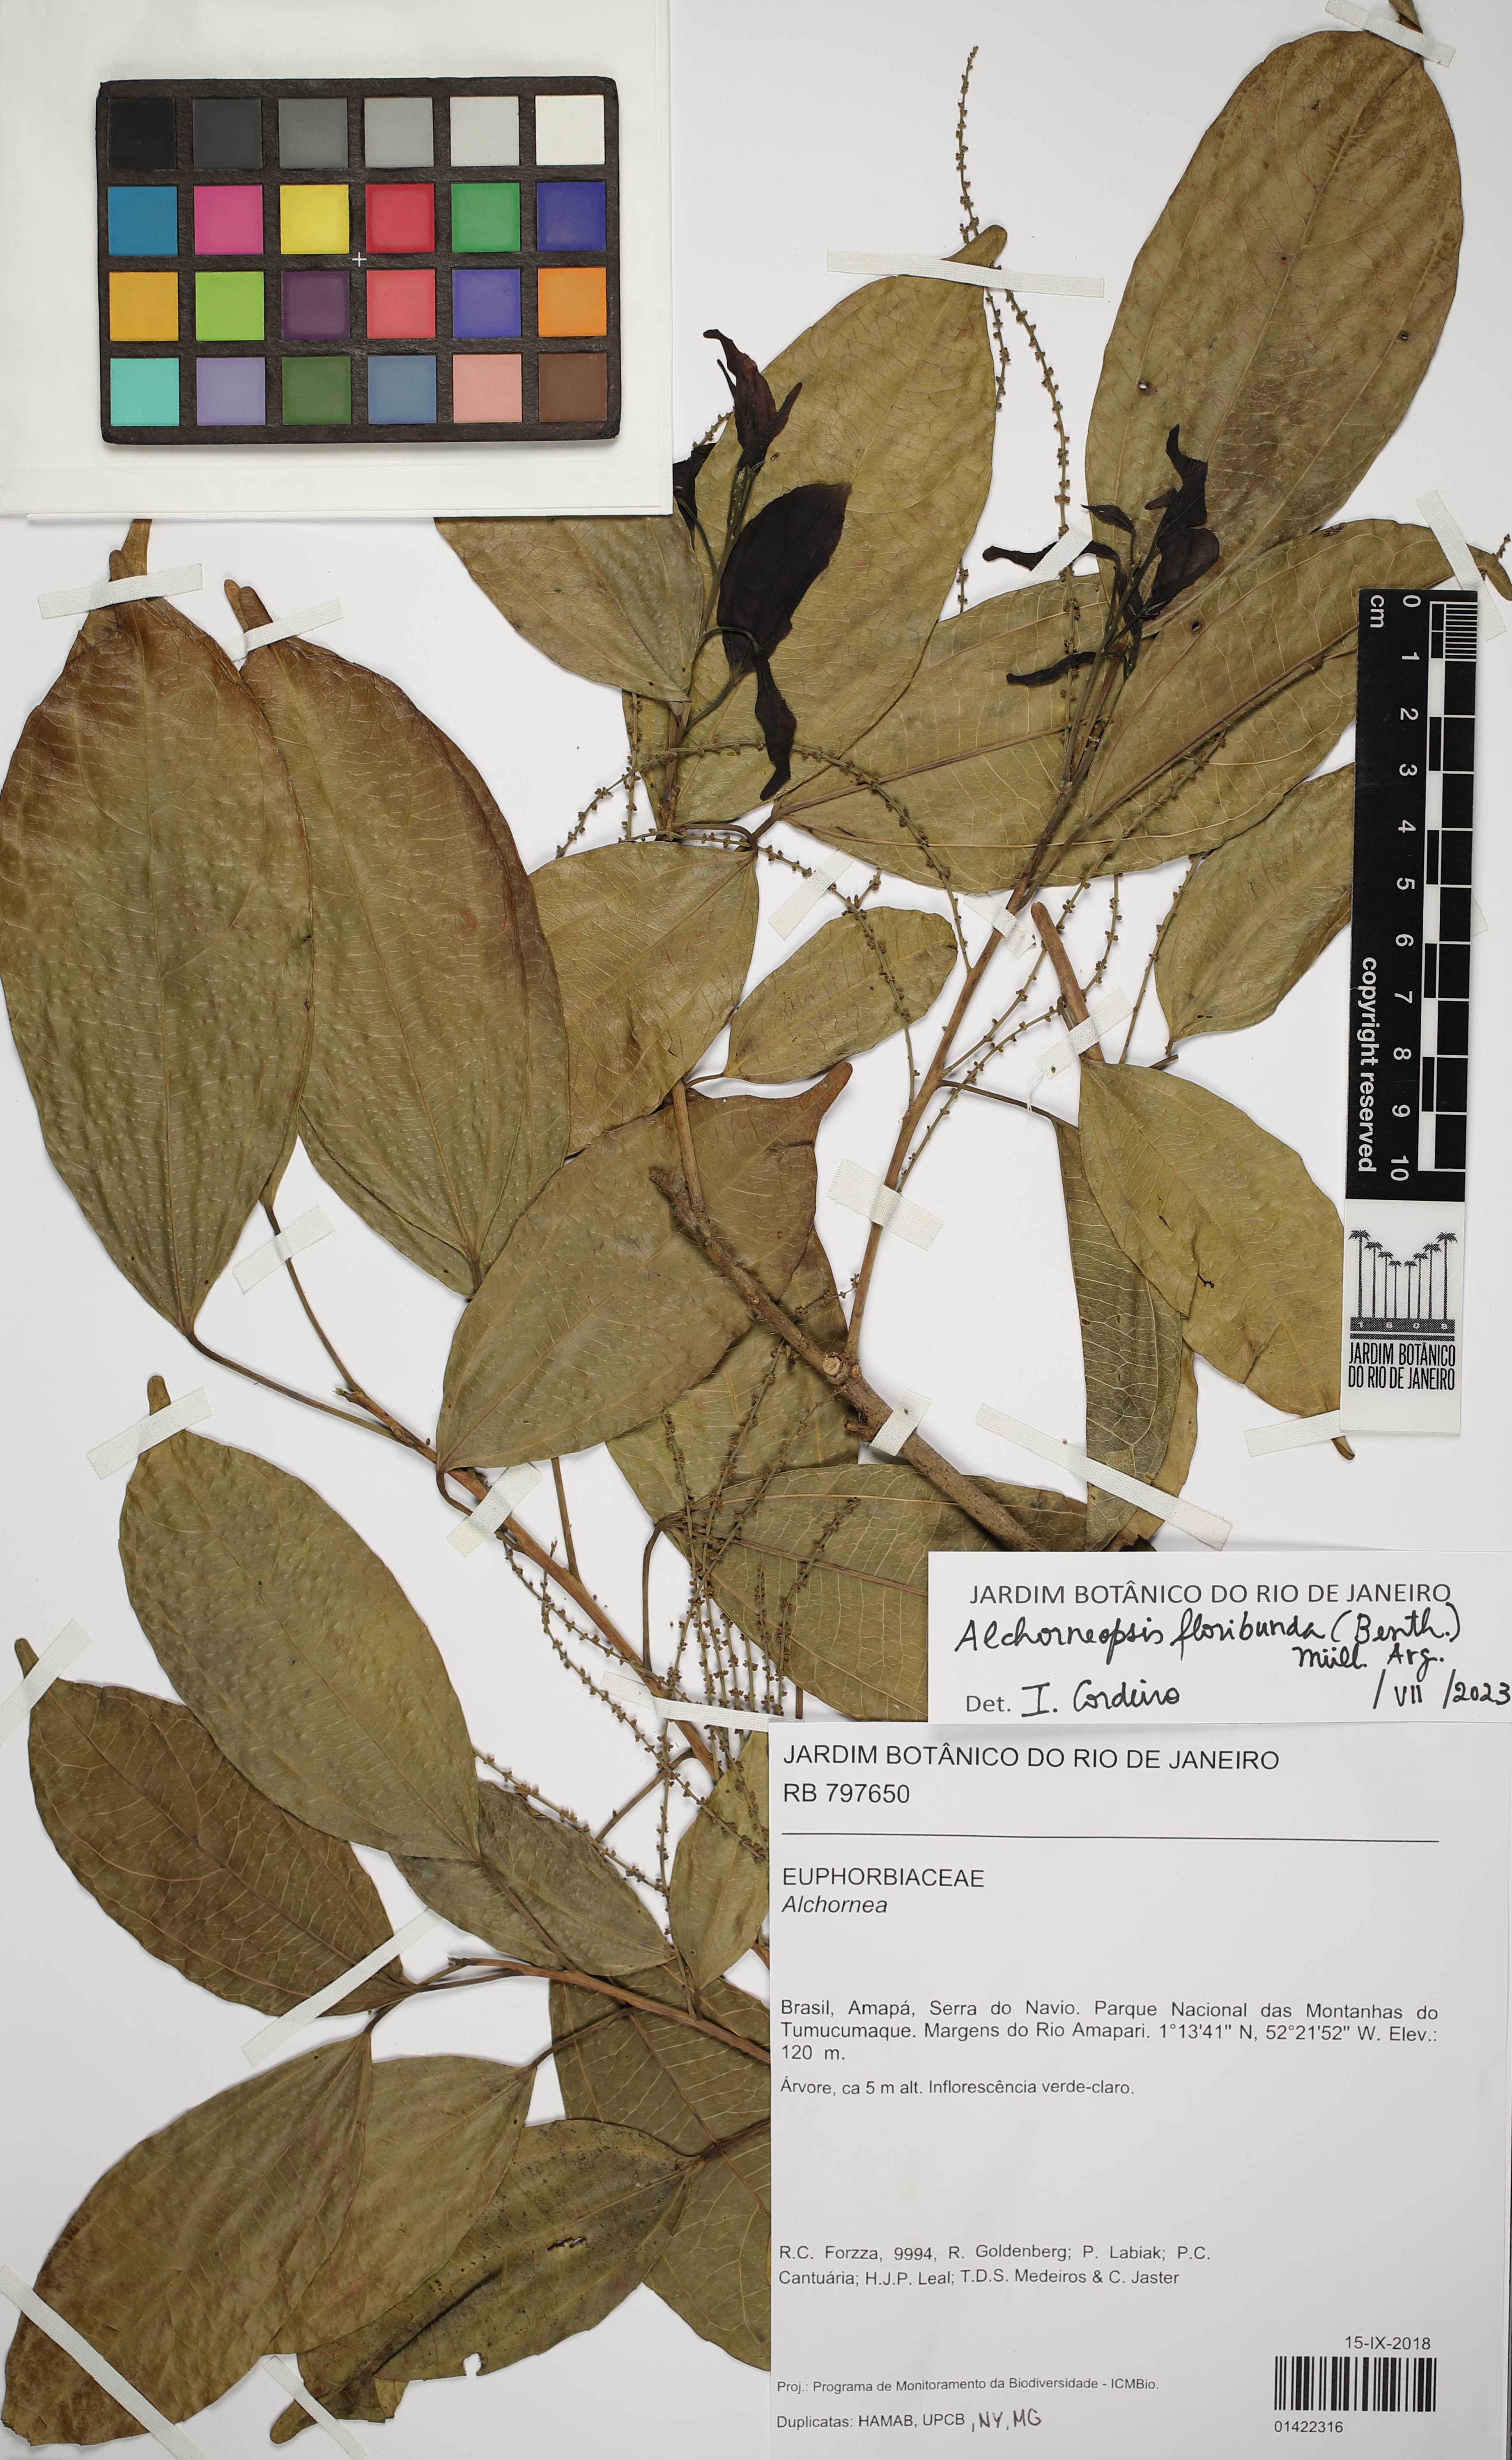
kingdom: Plantae
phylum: Tracheophyta
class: Magnoliopsida
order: Malpighiales
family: Euphorbiaceae
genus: Alchorneopsis
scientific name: Alchorneopsis floribunda
